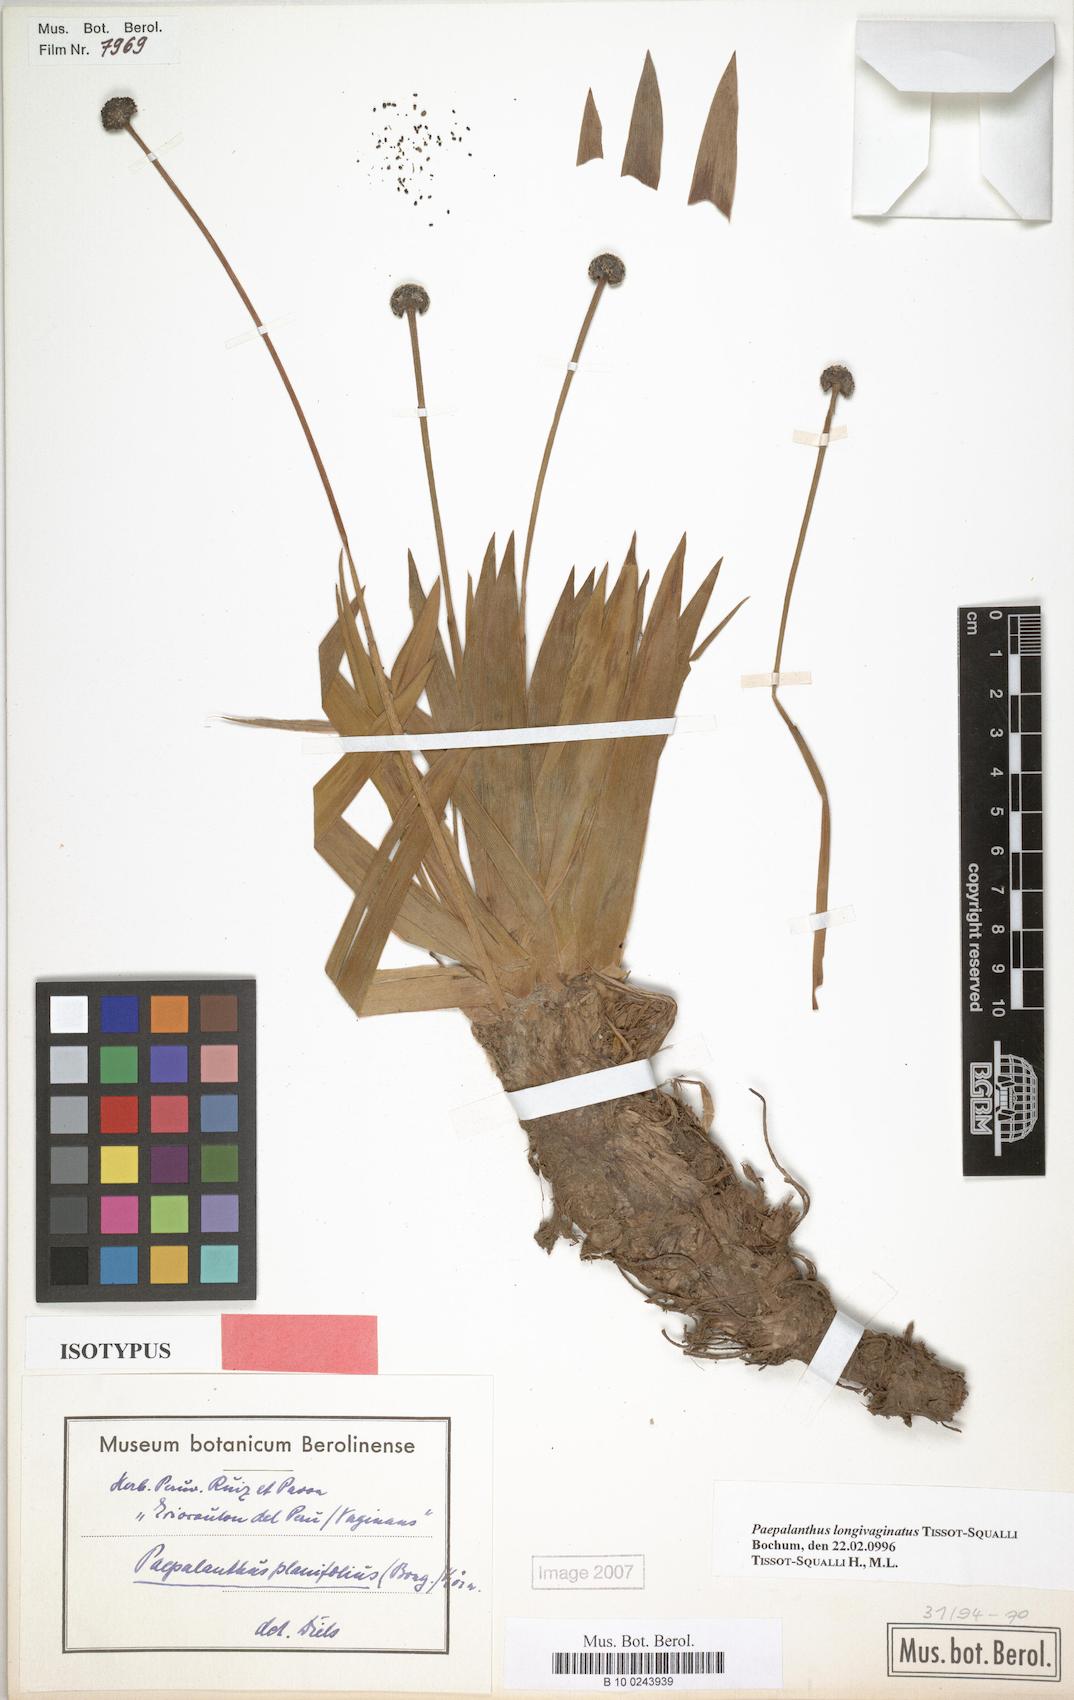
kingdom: Plantae
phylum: Tracheophyta
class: Liliopsida
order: Poales
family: Eriocaulaceae
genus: Paepalanthus
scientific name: Paepalanthus longivaginatus
